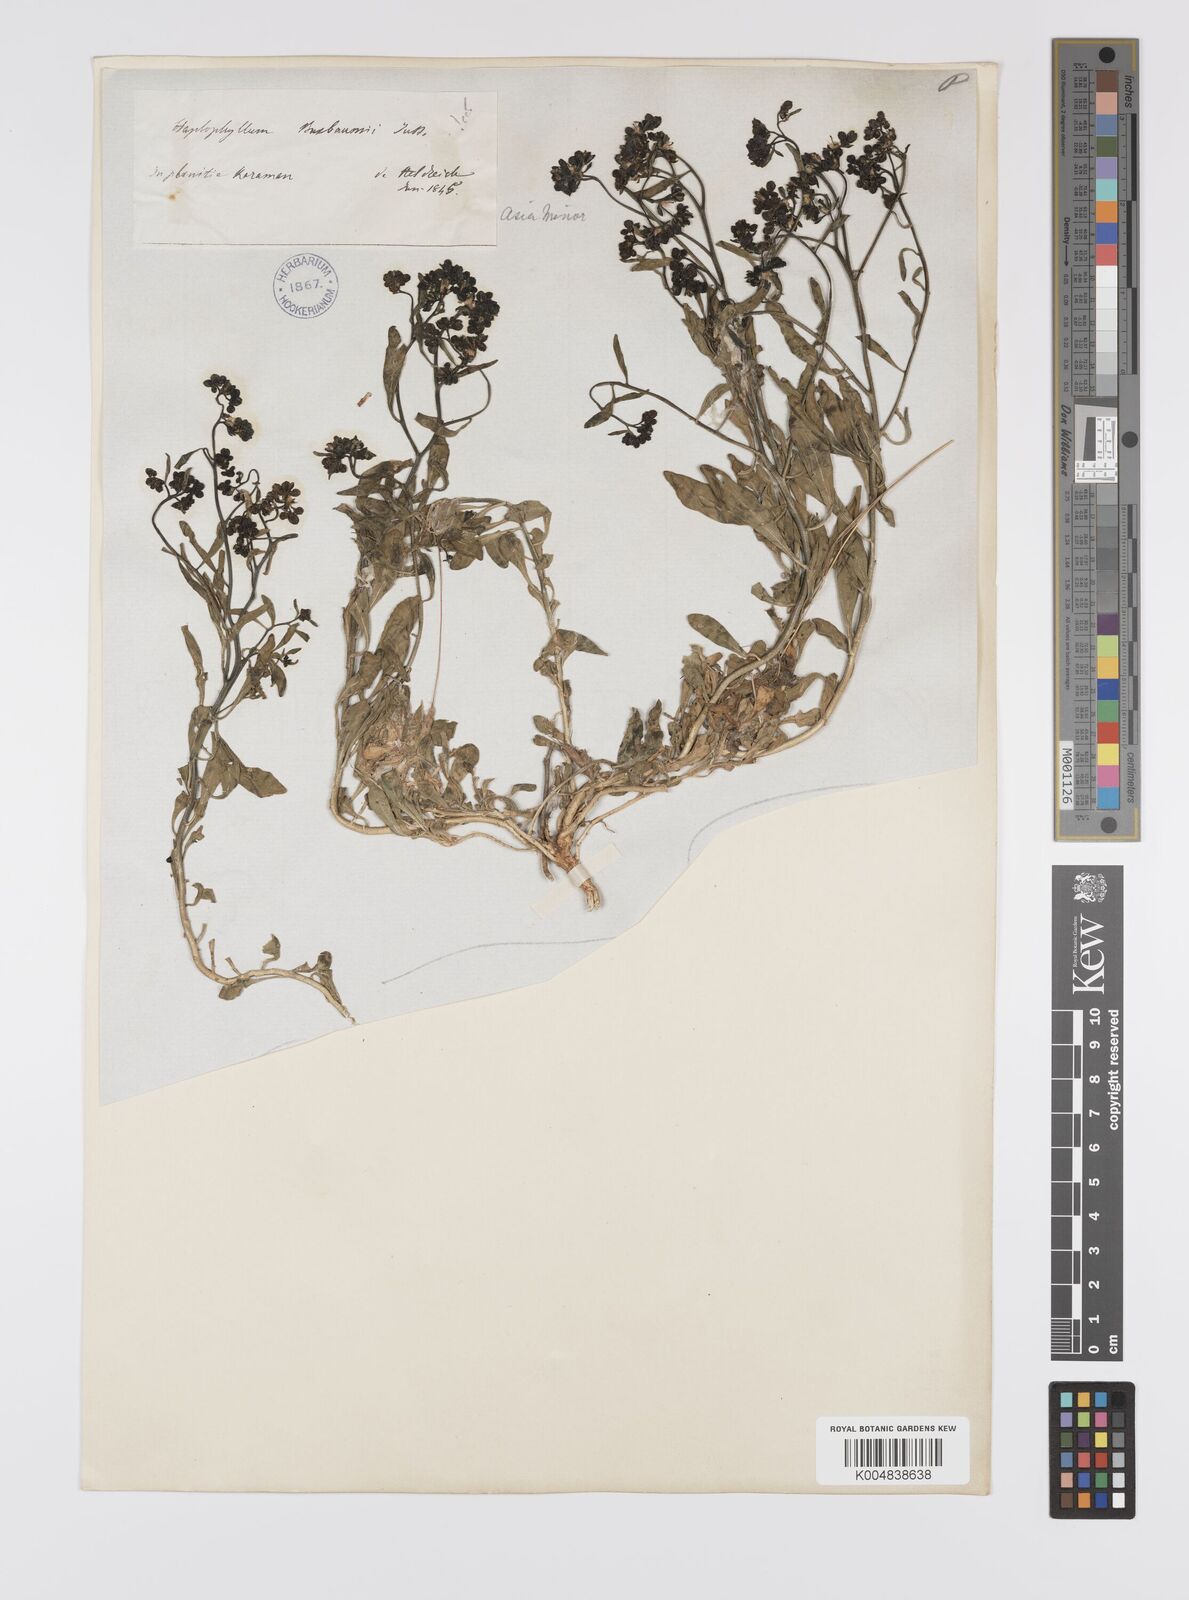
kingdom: Plantae
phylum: Tracheophyta
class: Magnoliopsida
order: Sapindales
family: Rutaceae
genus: Haplophyllum
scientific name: Haplophyllum
